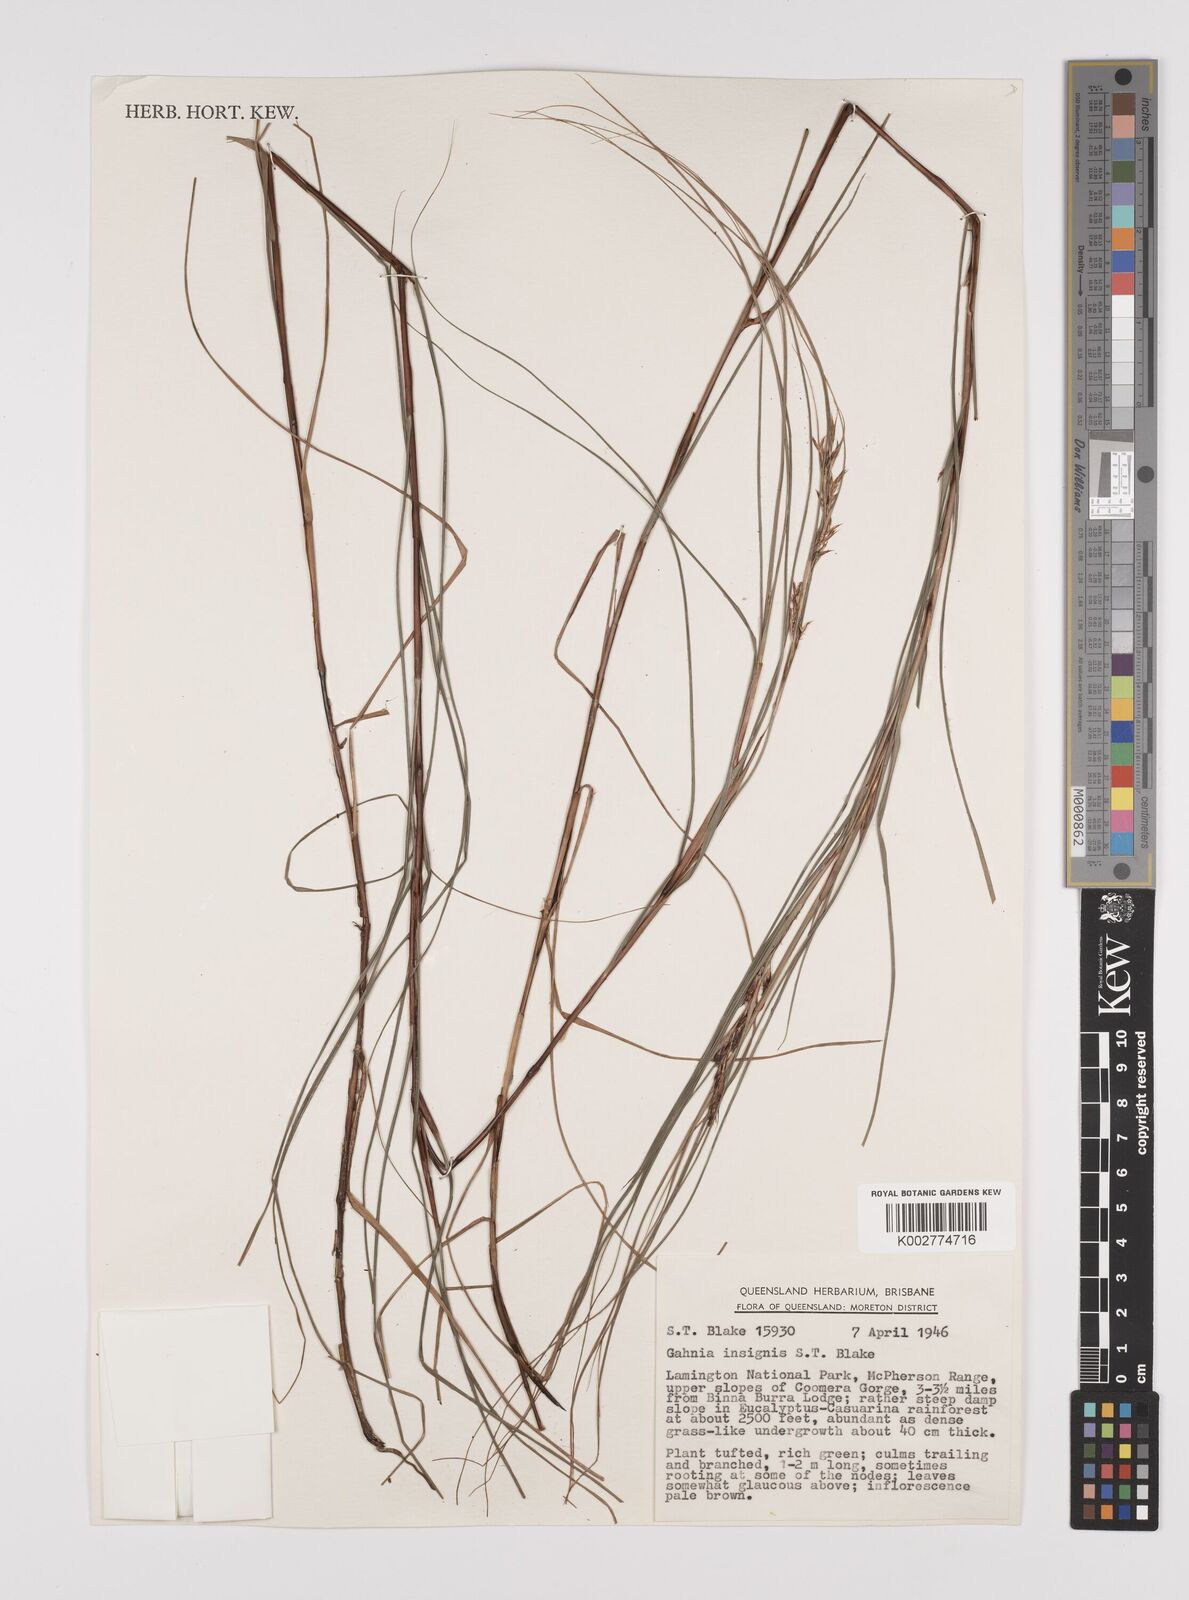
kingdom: Plantae
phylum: Tracheophyta
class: Liliopsida
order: Poales
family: Cyperaceae
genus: Gahnia
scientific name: Gahnia insignis
